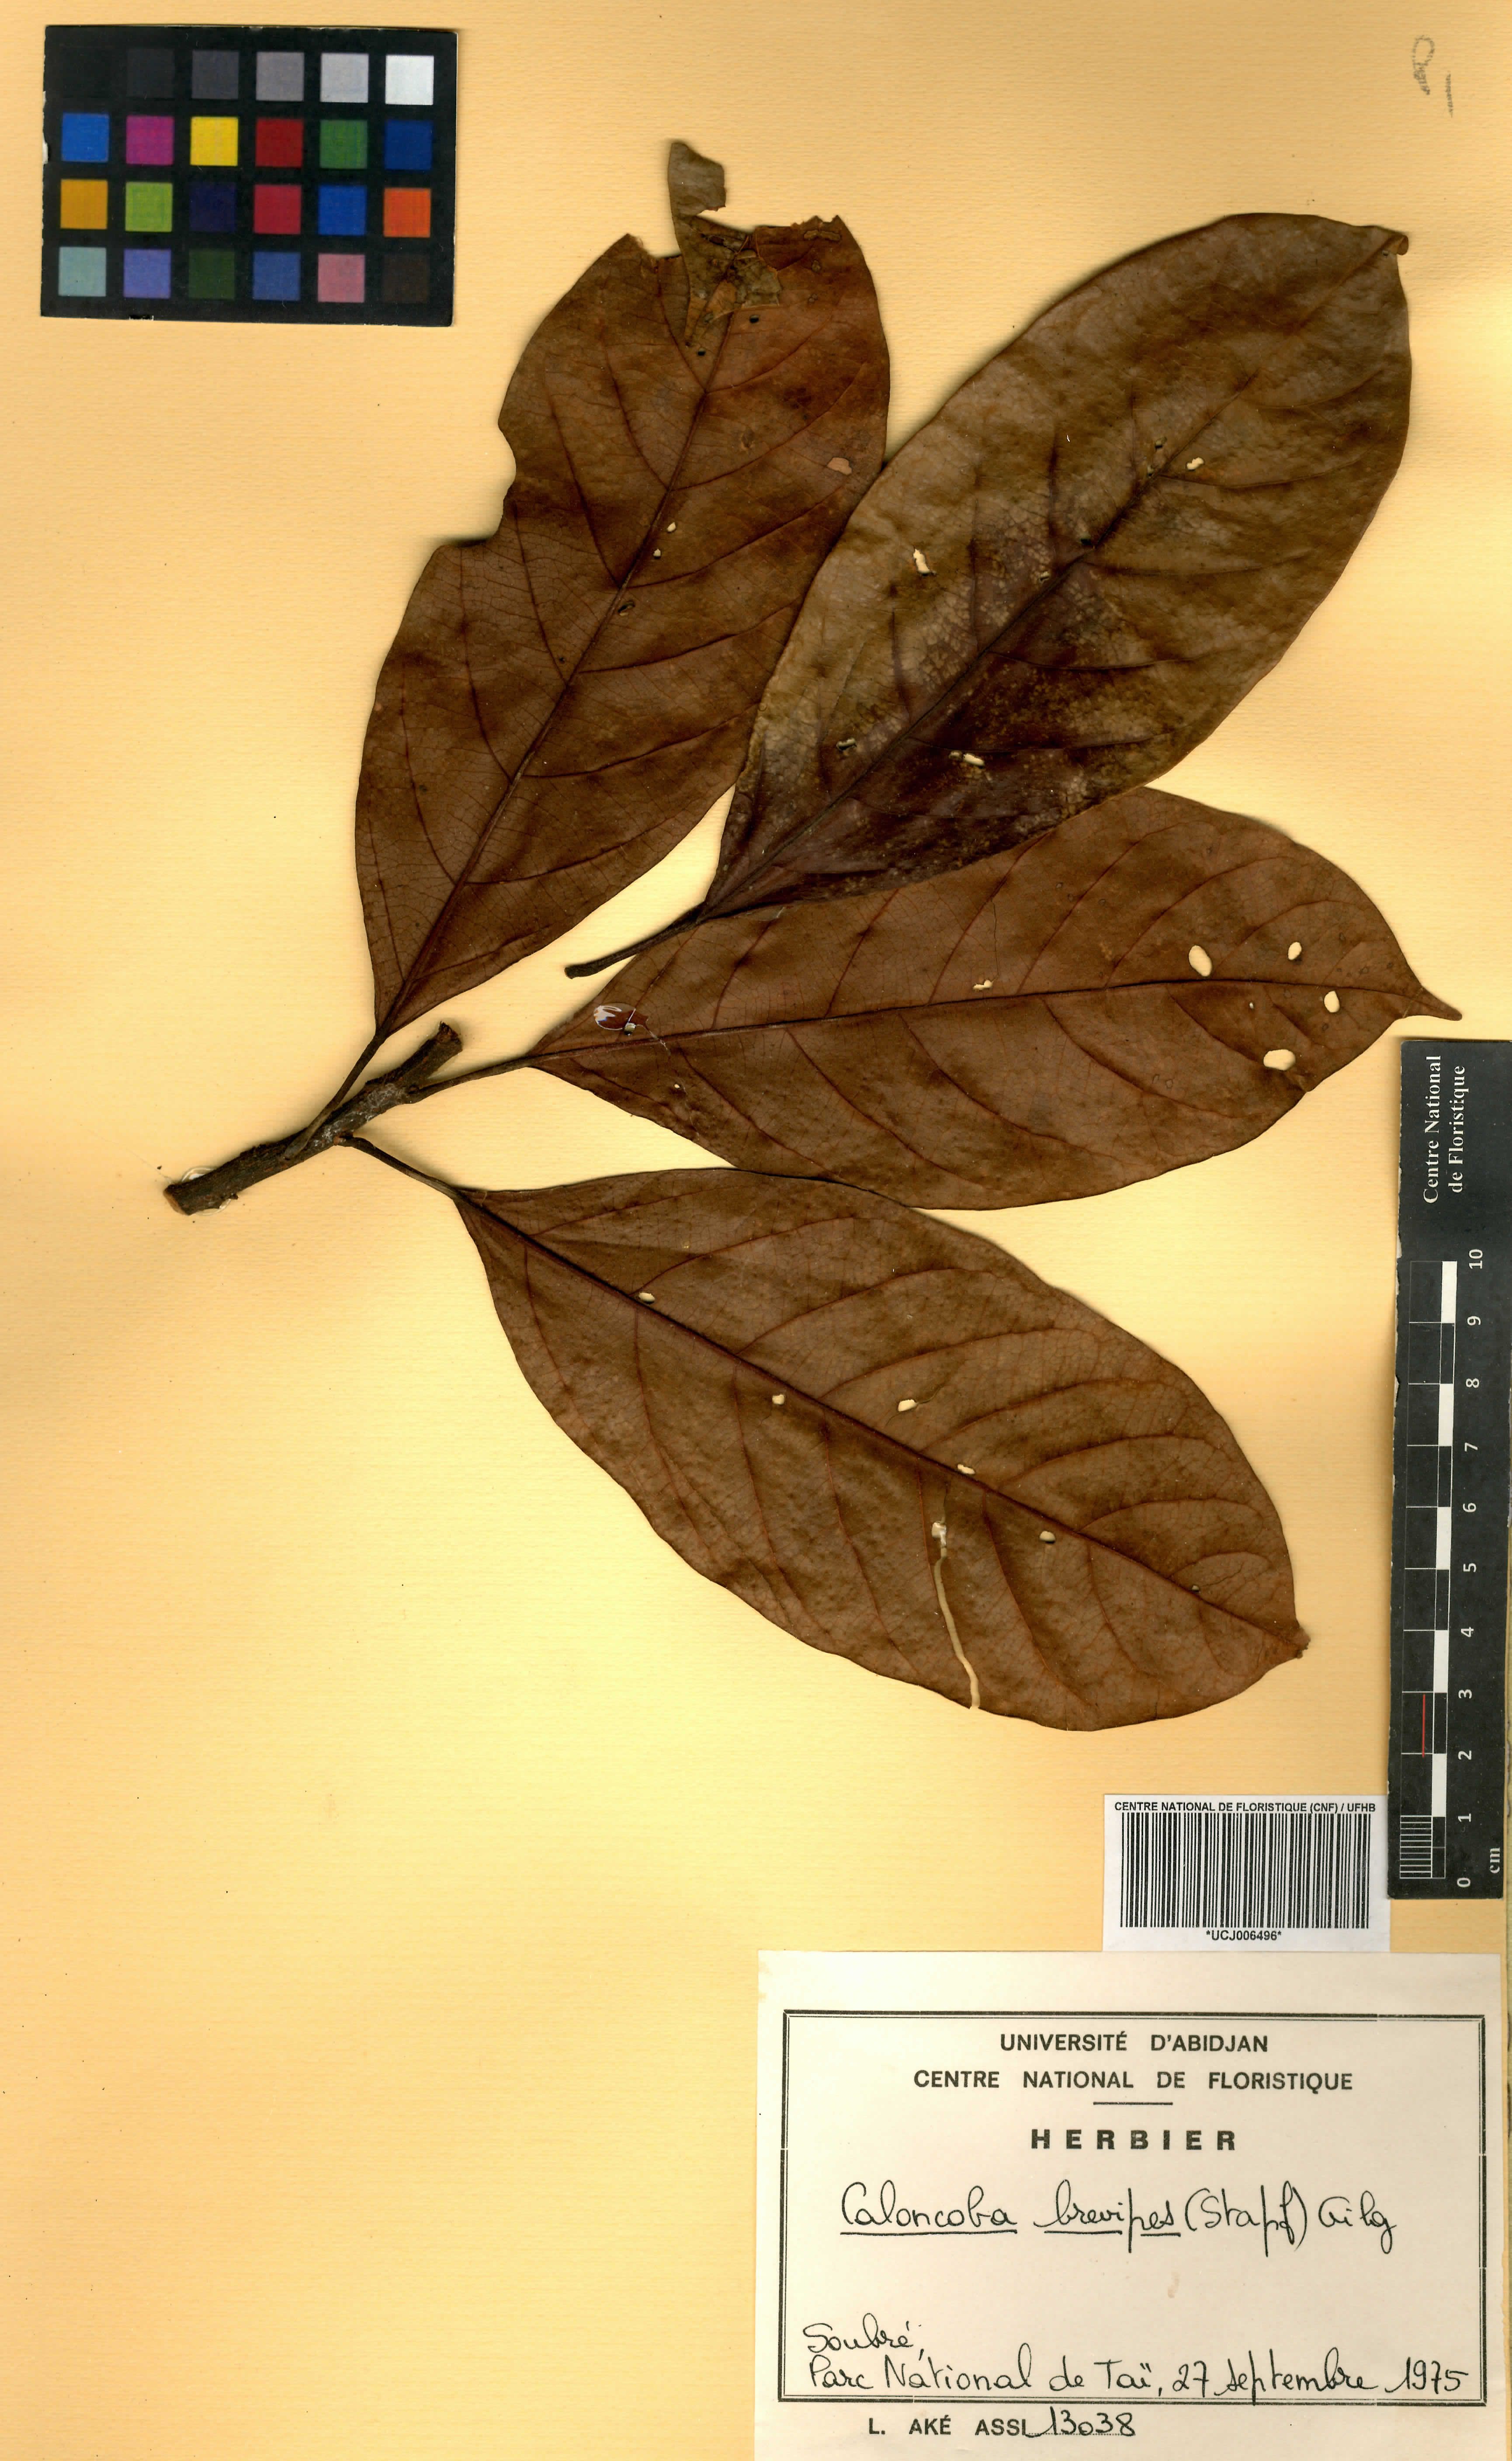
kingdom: Plantae
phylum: Tracheophyta
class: Magnoliopsida
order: Malpighiales
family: Achariaceae
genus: Caloncoba
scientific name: Caloncoba brevipes
